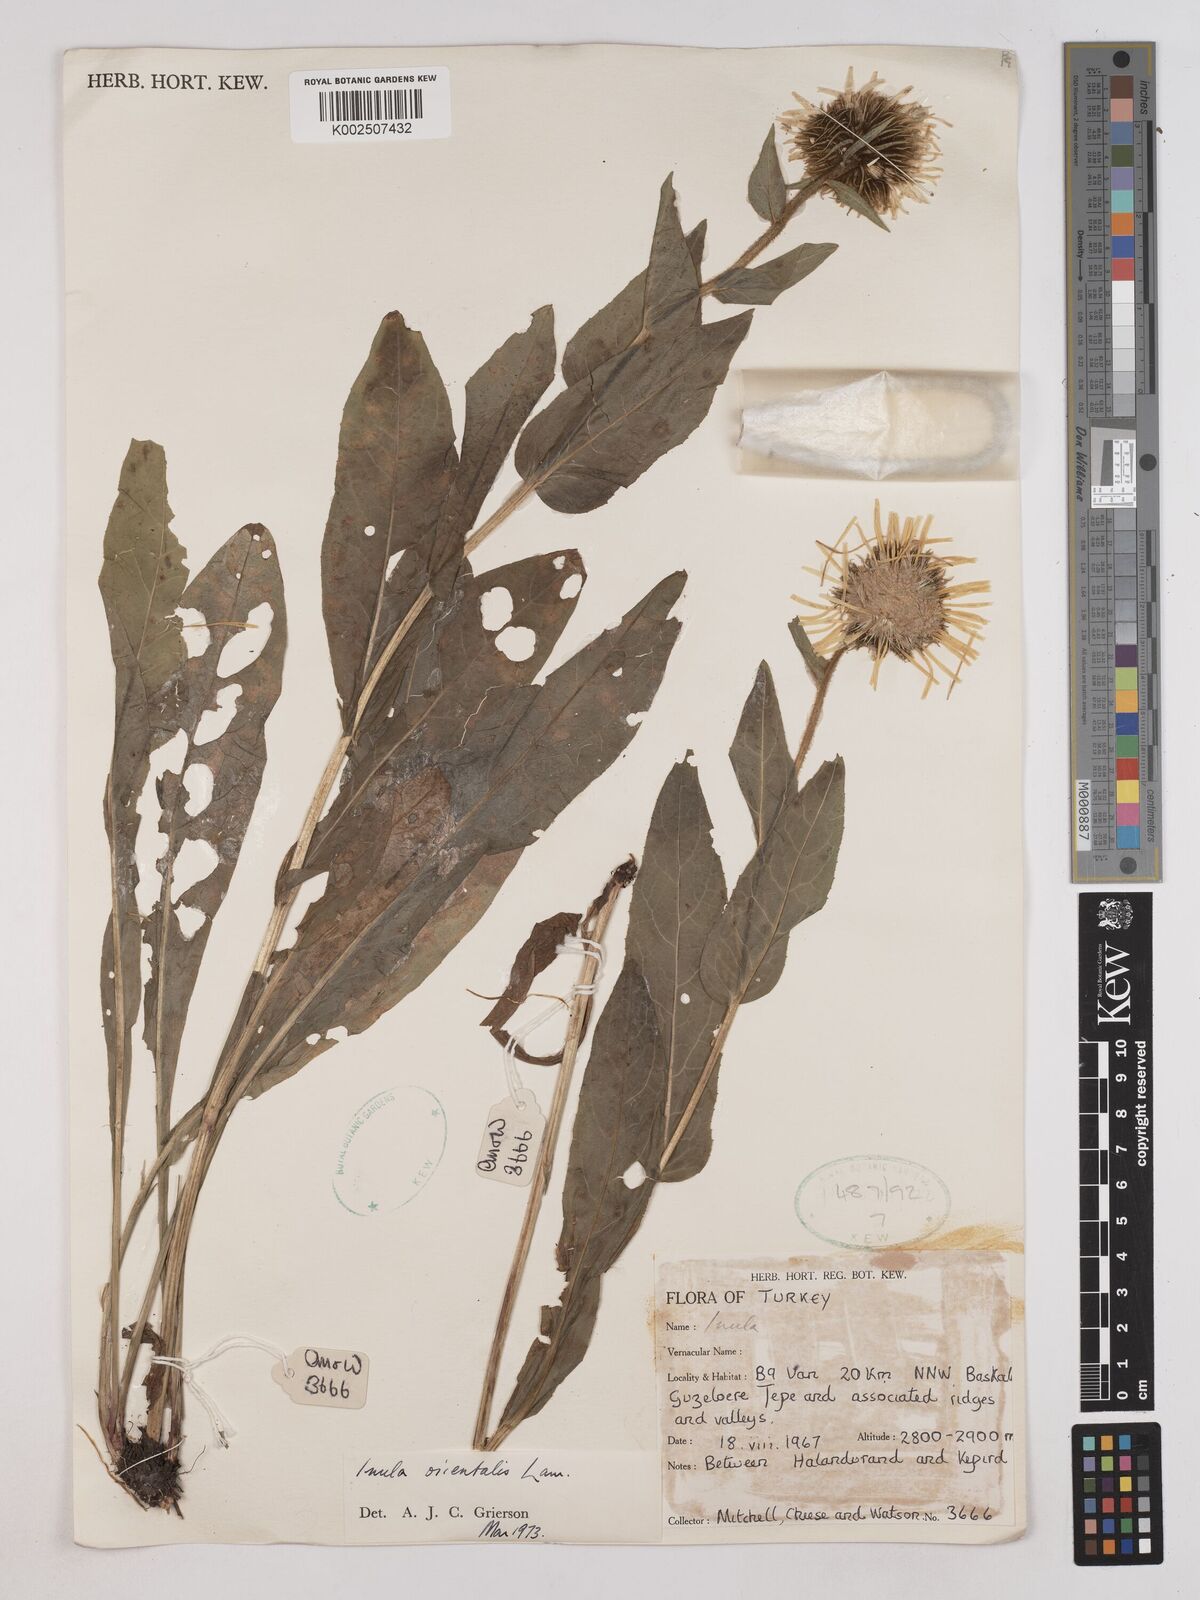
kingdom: Plantae
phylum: Tracheophyta
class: Magnoliopsida
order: Asterales
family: Asteraceae
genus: Pentanema
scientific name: Pentanema orientale
